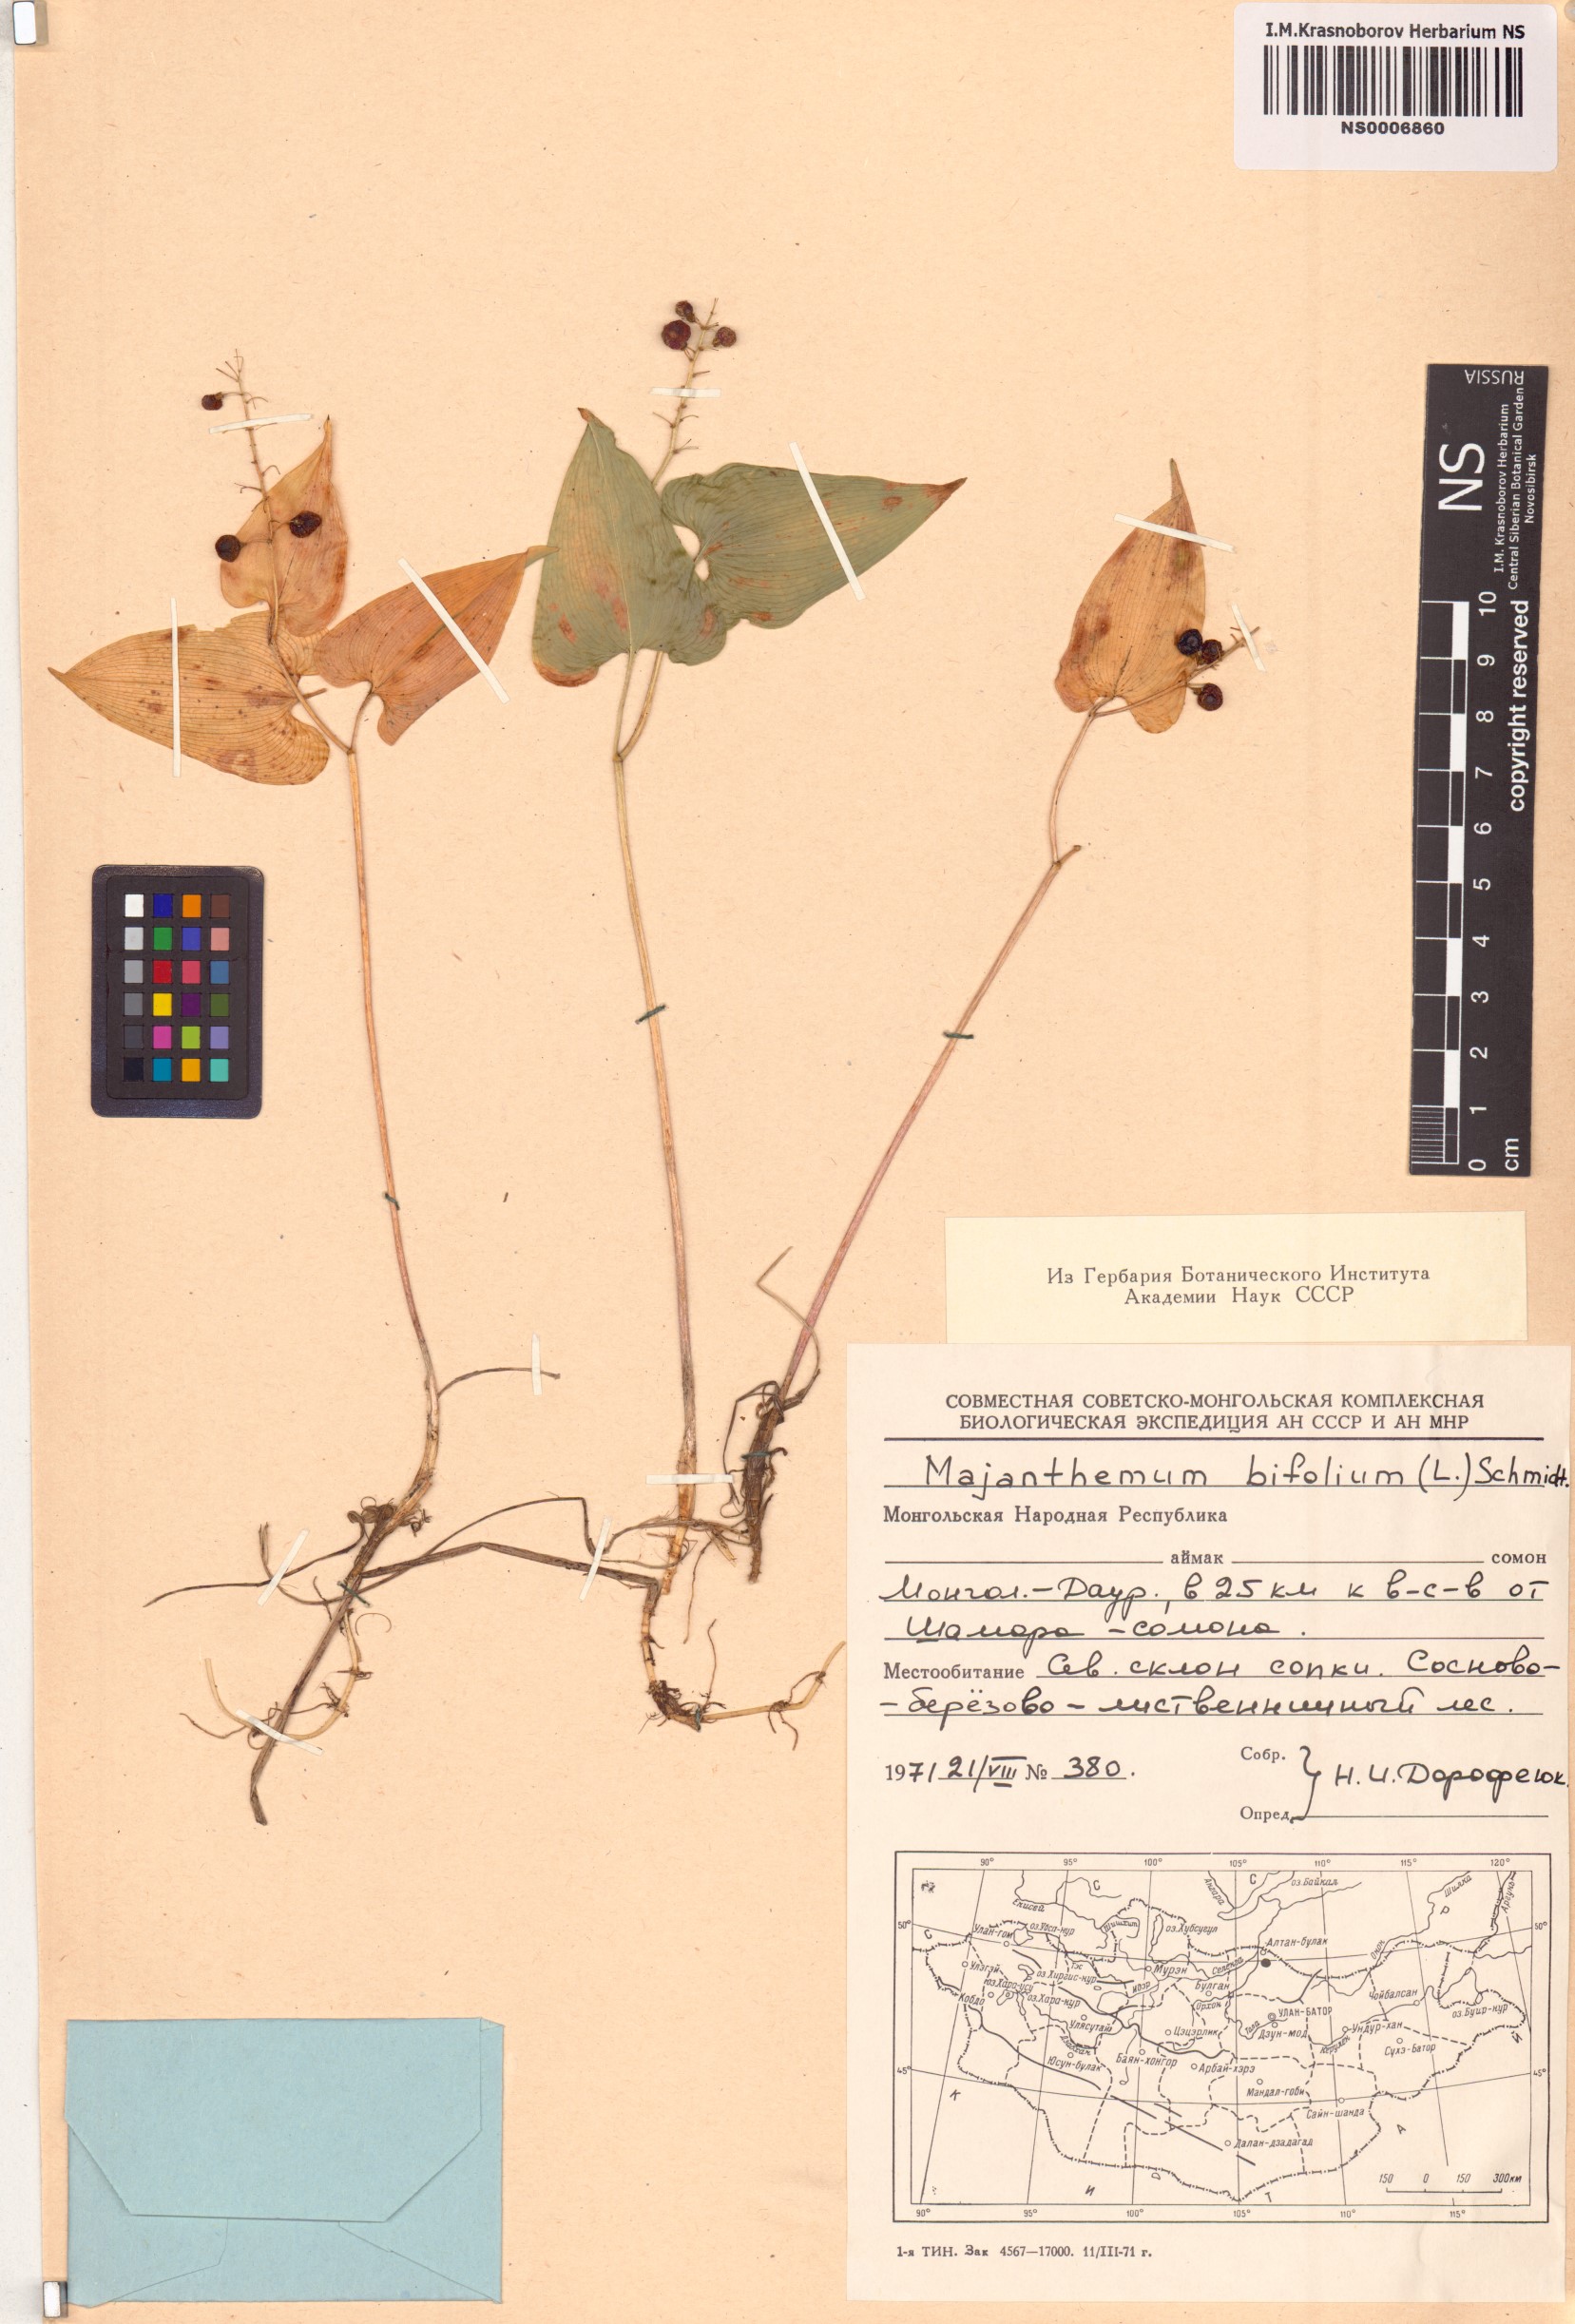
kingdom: Plantae
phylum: Tracheophyta
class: Liliopsida
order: Asparagales
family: Asparagaceae
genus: Maianthemum
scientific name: Maianthemum bifolium
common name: May lily
